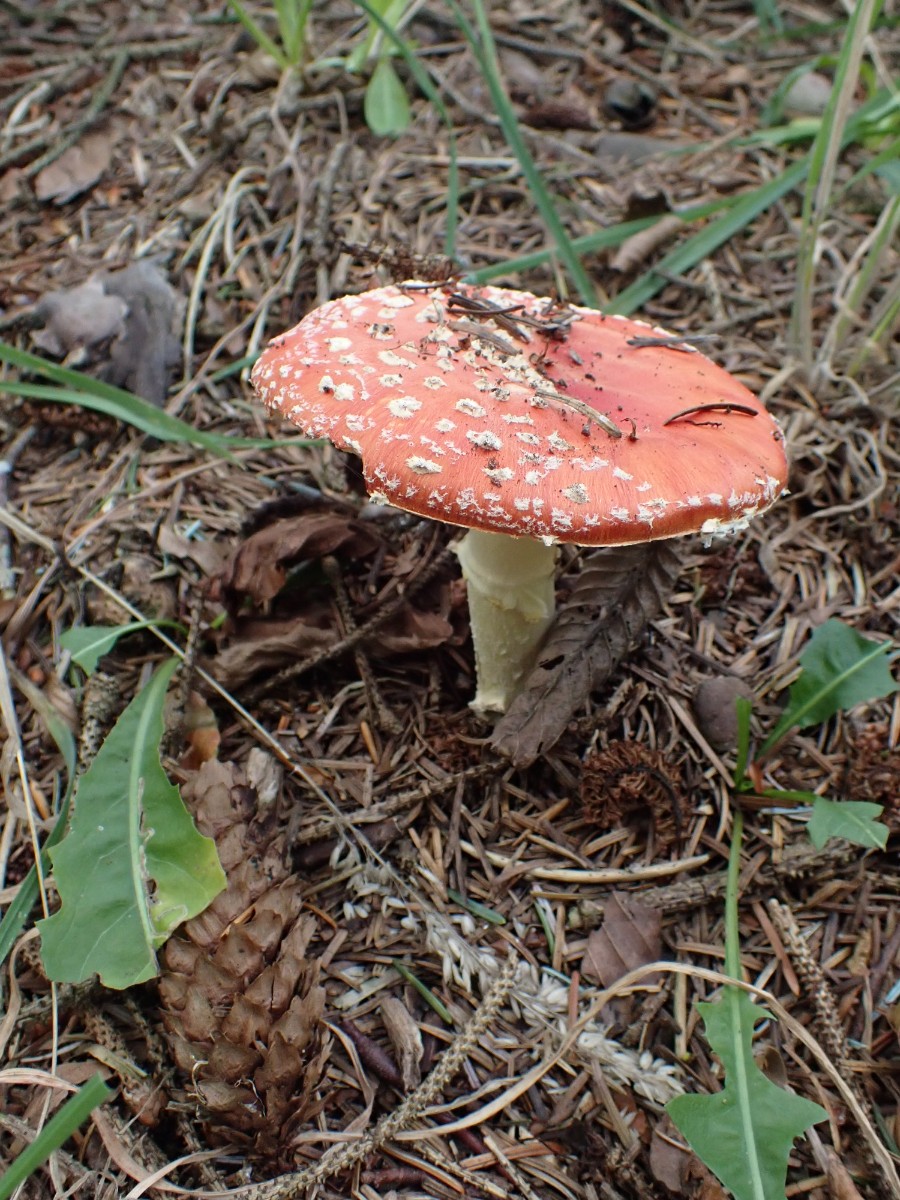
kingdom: Fungi
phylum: Basidiomycota
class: Agaricomycetes
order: Agaricales
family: Amanitaceae
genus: Amanita
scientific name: Amanita muscaria
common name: rød fluesvamp
